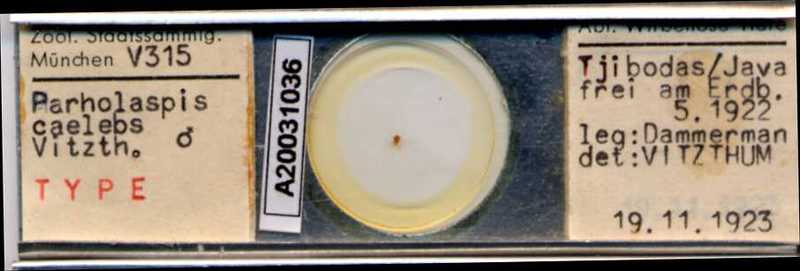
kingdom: Animalia
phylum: Arthropoda
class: Arachnida
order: Mesostigmata
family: Parholaspididae
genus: Parholaspis
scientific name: Parholaspis
